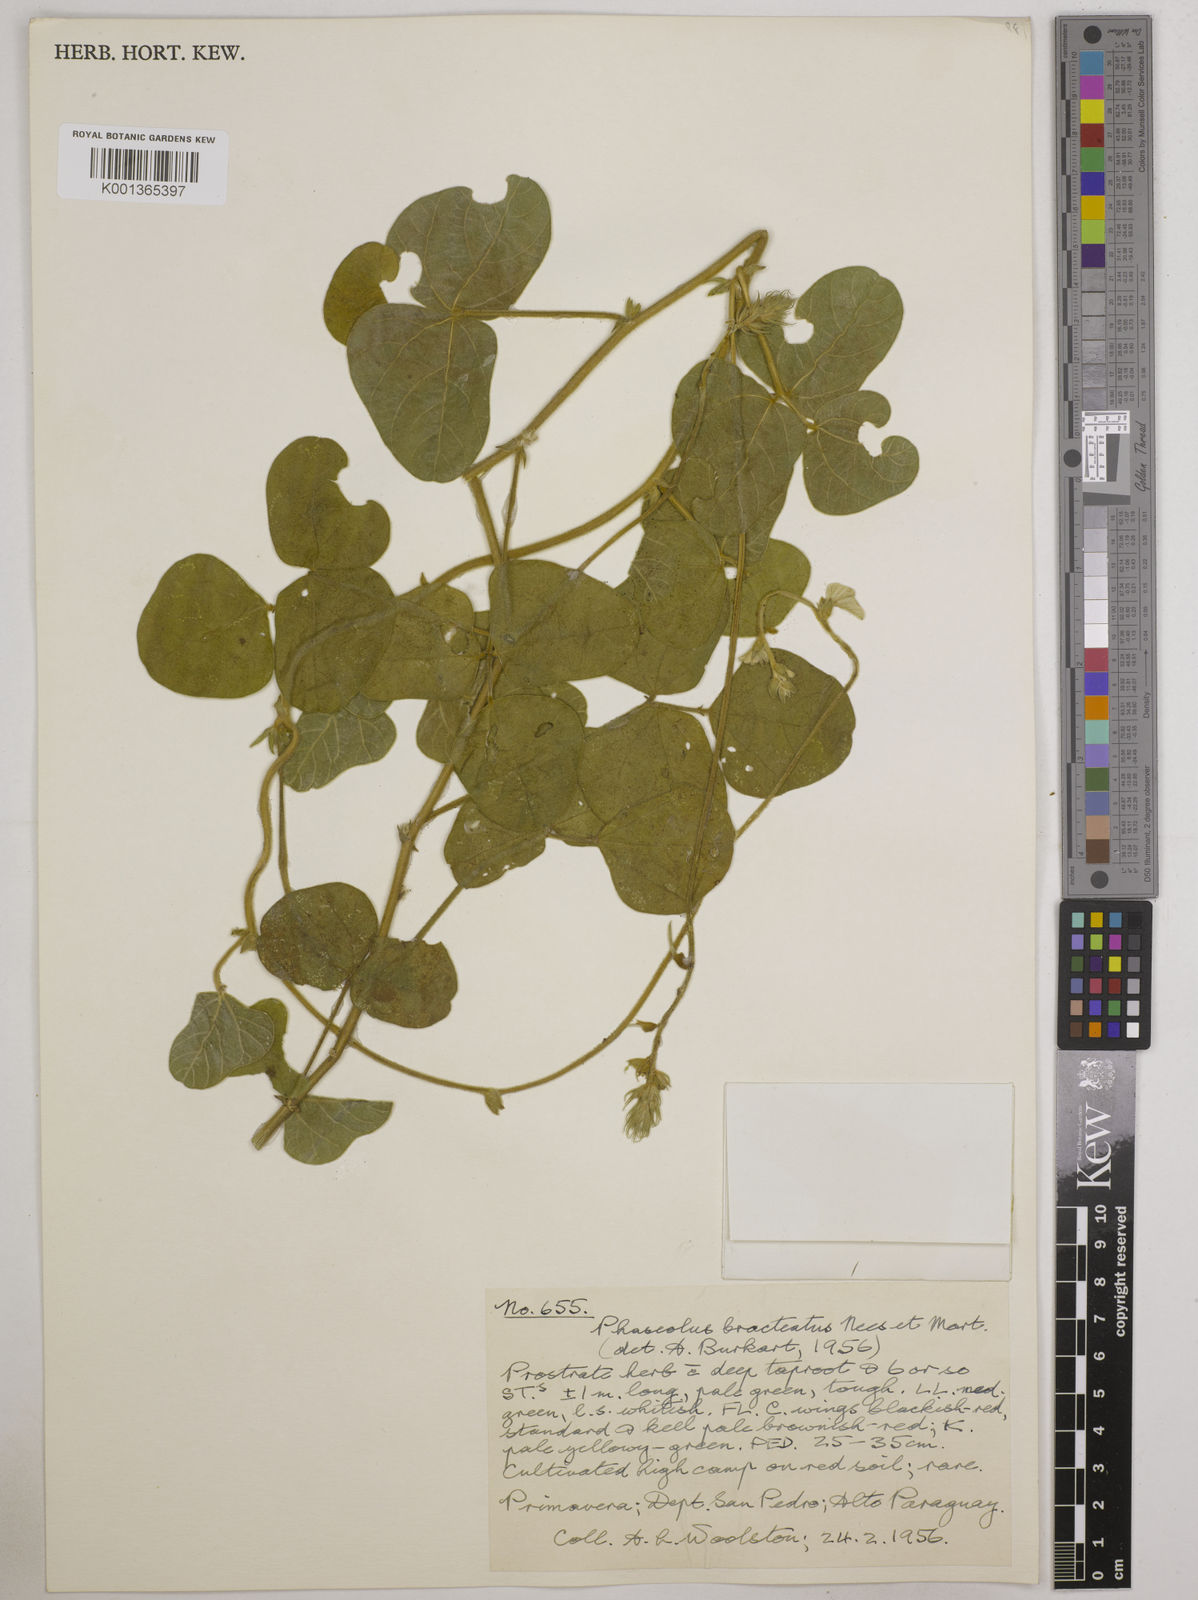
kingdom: Plantae
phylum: Tracheophyta
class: Magnoliopsida
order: Fabales
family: Fabaceae
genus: Macroptilium
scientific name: Macroptilium bracteatum
